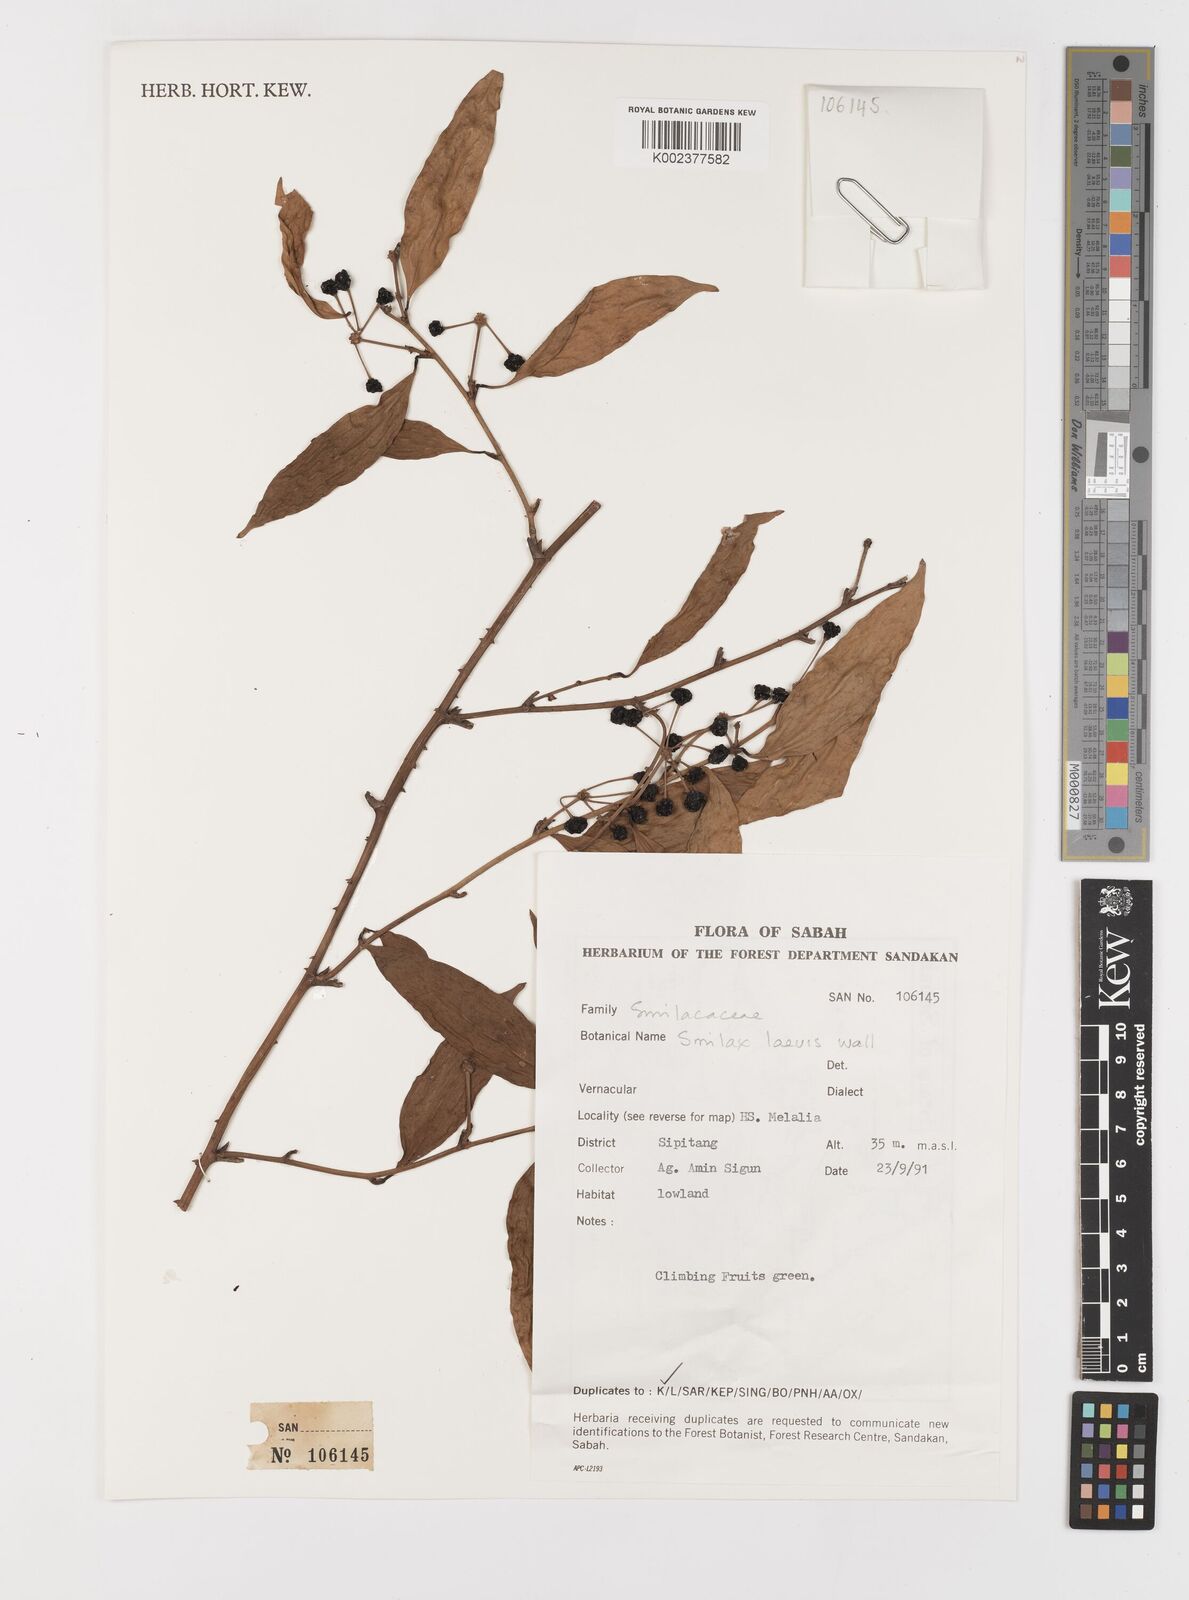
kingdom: Plantae
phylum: Tracheophyta
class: Liliopsida
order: Liliales
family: Smilacaceae
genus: Smilax
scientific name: Smilax laevis
